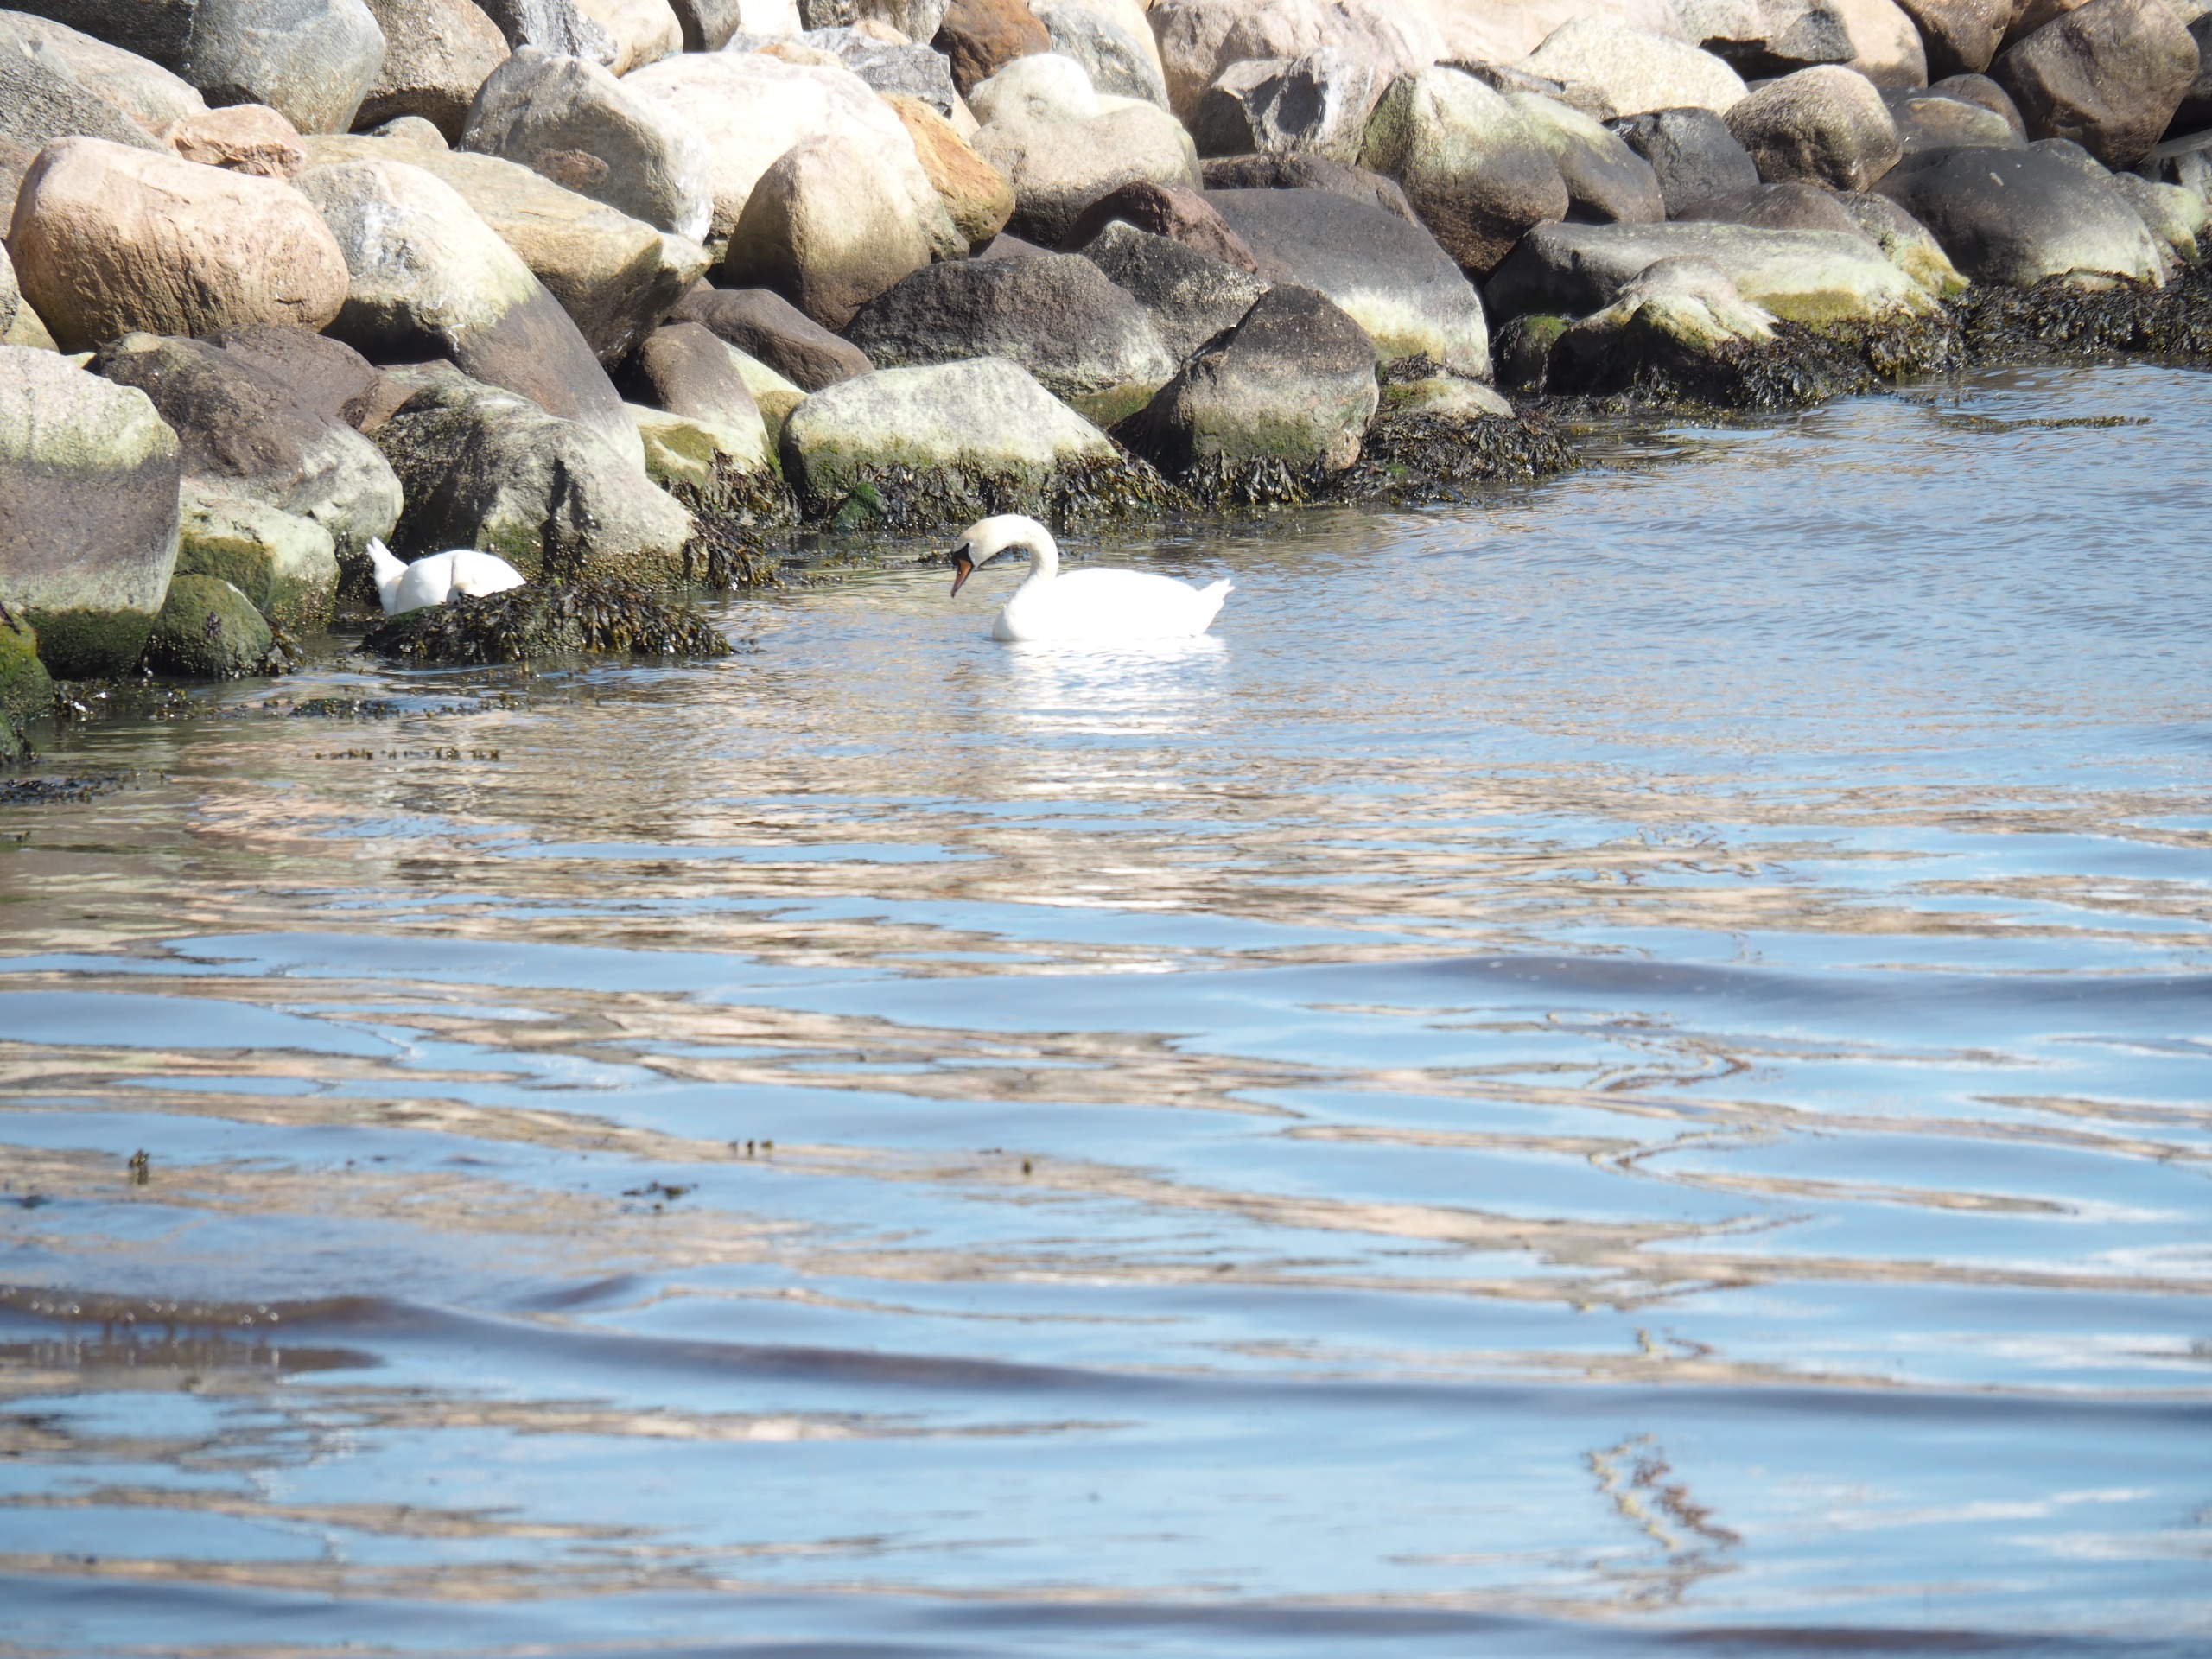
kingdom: Animalia
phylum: Chordata
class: Aves
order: Anseriformes
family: Anatidae
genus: Cygnus
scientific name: Cygnus olor
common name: Knopsvane
